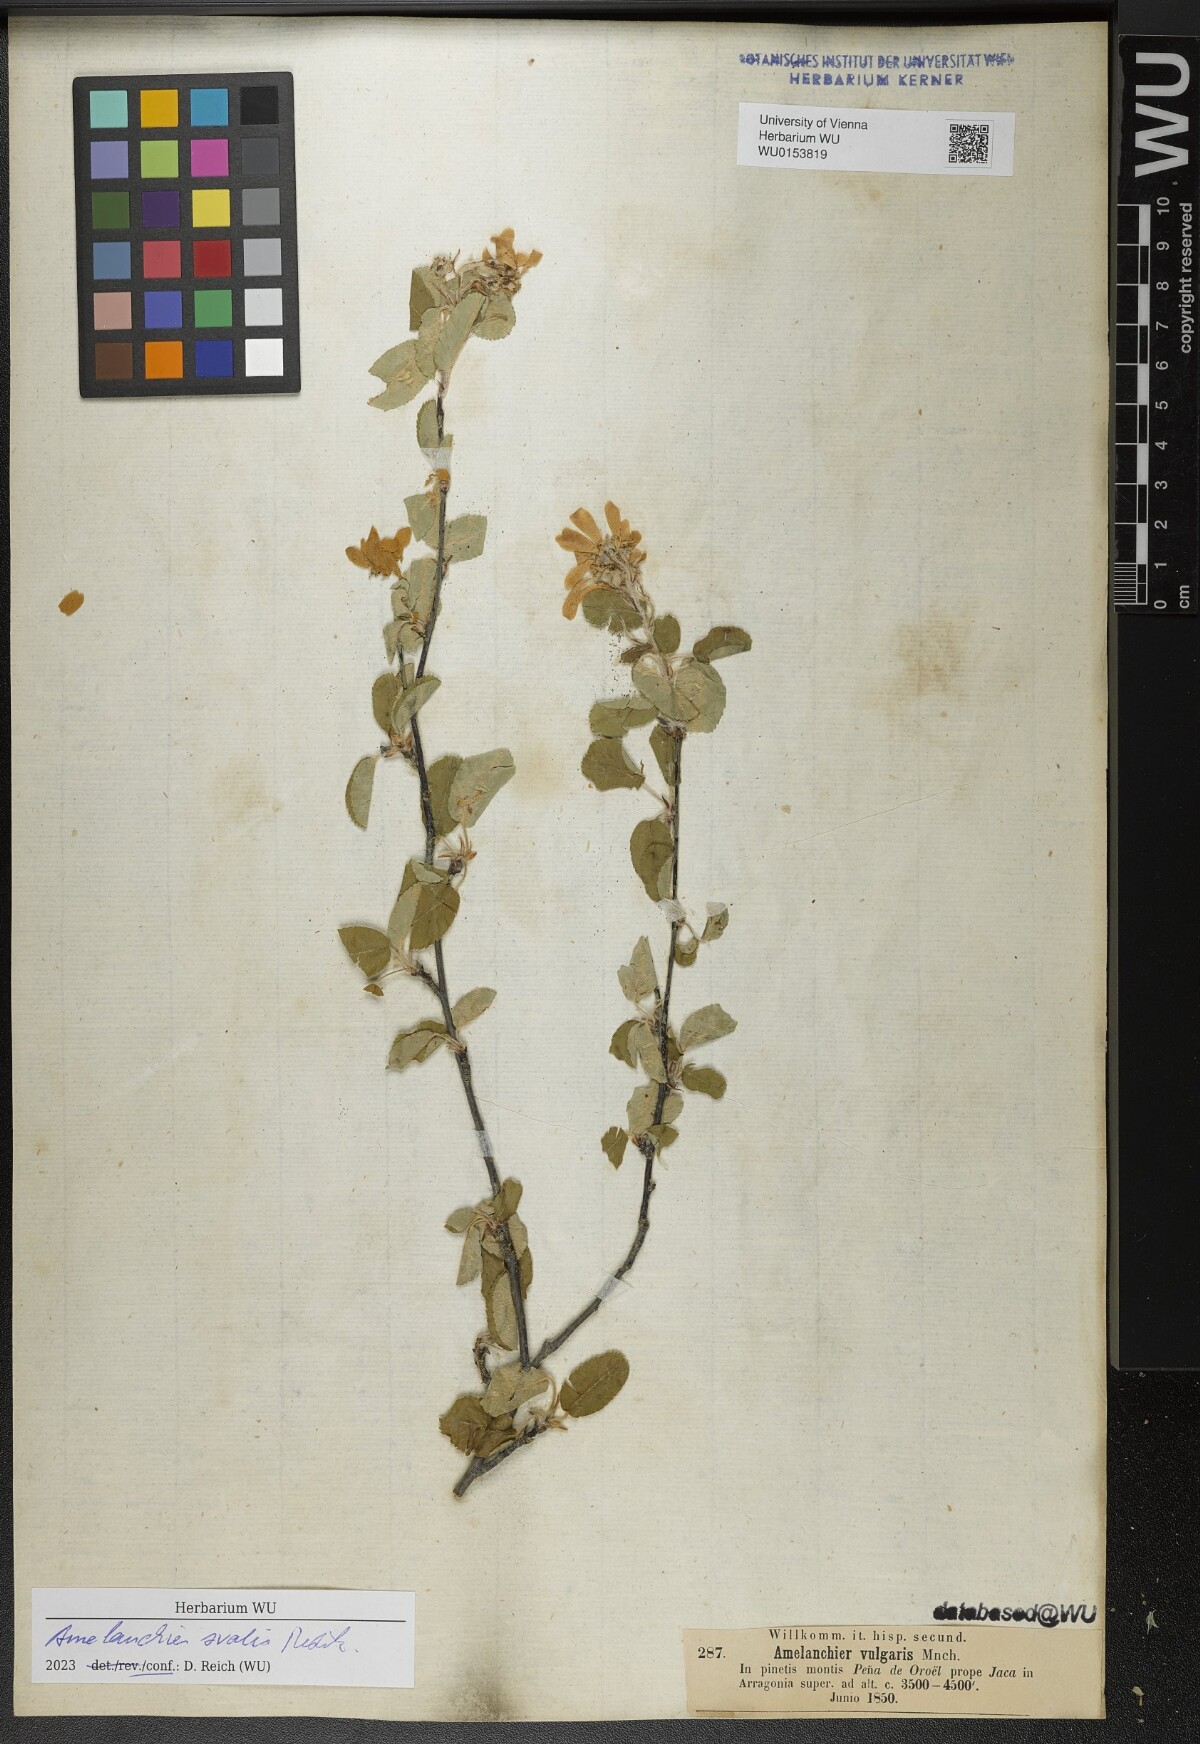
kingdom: Plantae
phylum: Tracheophyta
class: Magnoliopsida
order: Rosales
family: Rosaceae
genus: Amelanchier
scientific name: Amelanchier ovalis
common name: Serviceberry
